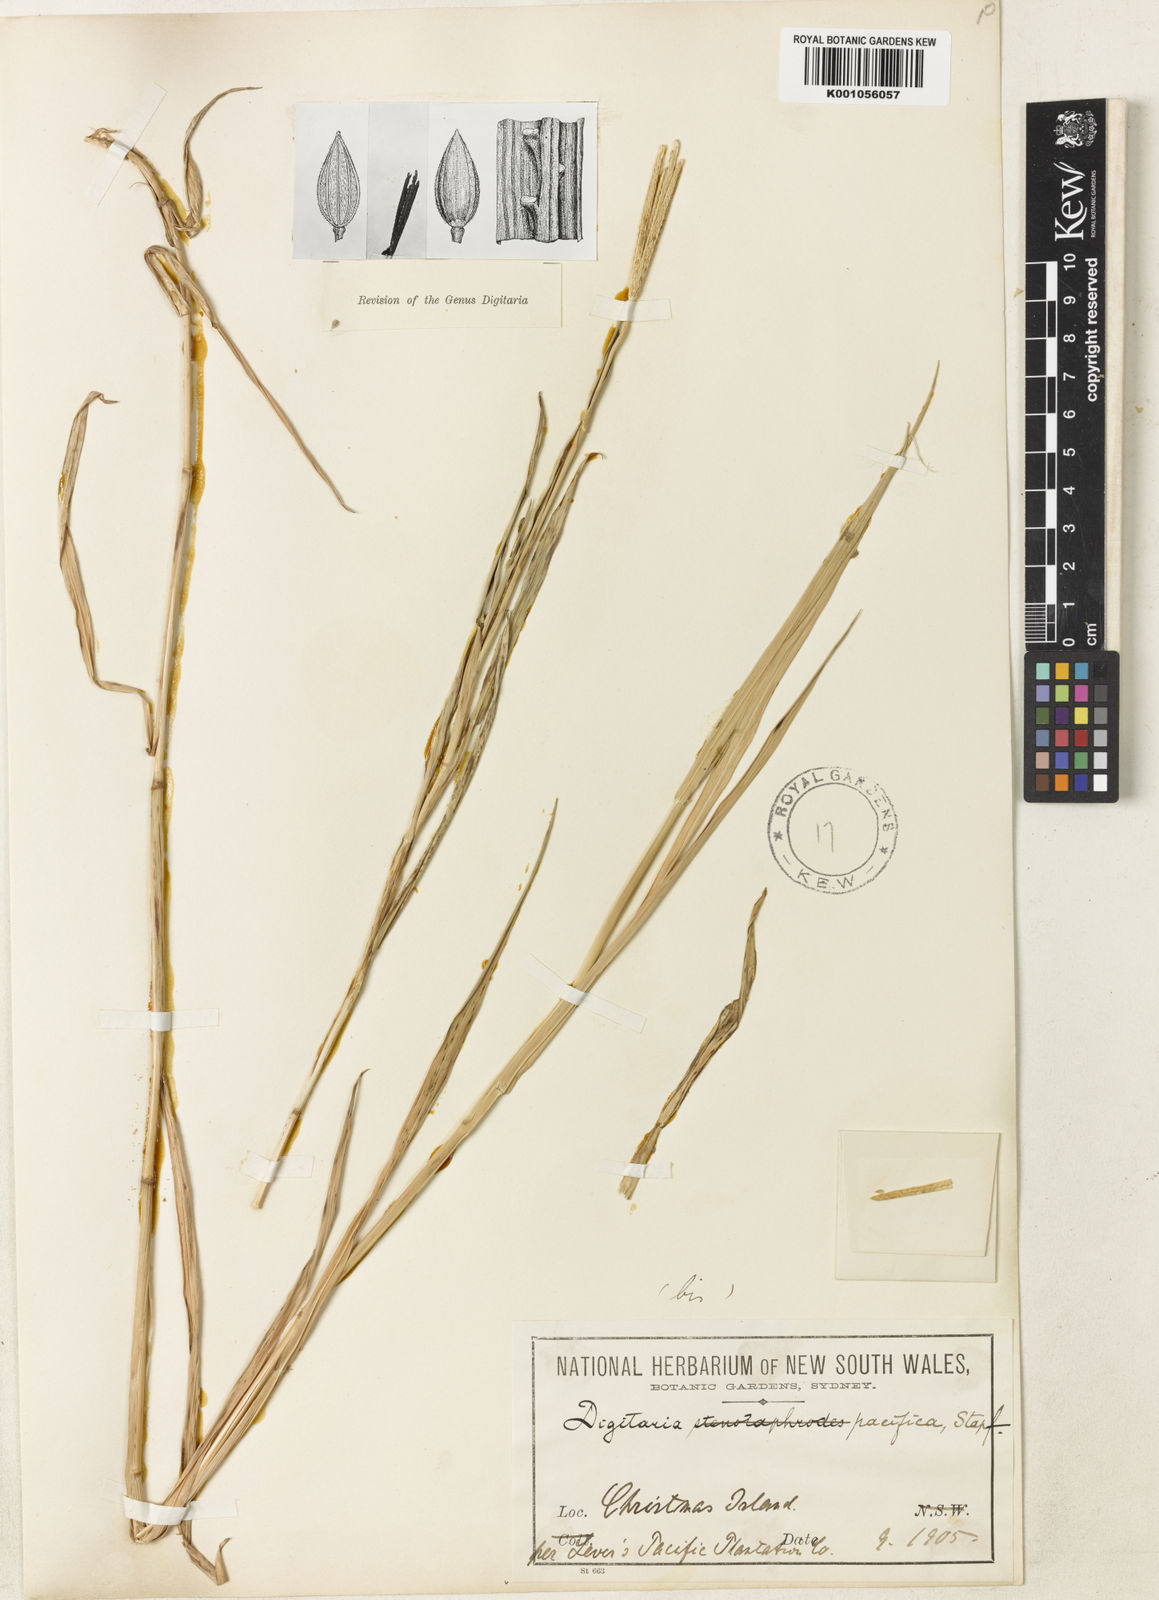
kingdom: Plantae
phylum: Tracheophyta
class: Liliopsida
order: Poales
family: Poaceae
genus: Digitaria
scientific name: Digitaria stenotaphrodes
